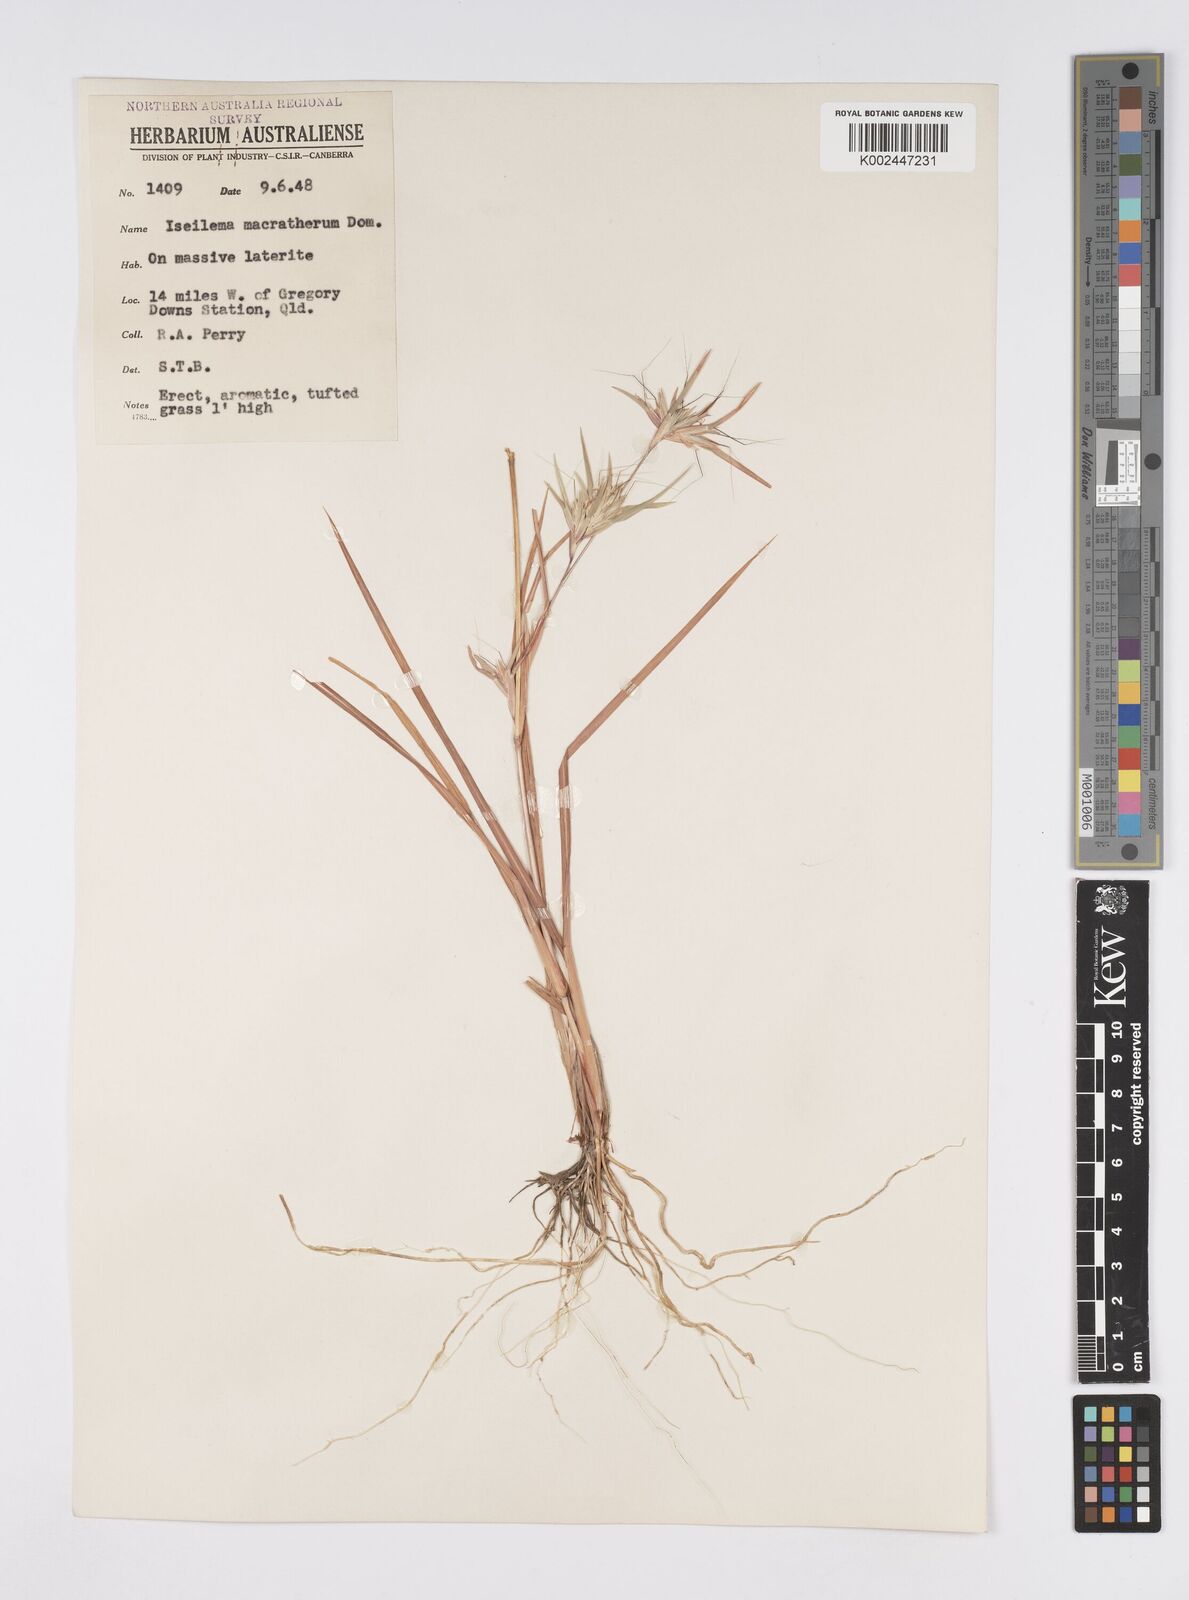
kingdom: Plantae
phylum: Tracheophyta
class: Liliopsida
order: Poales
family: Poaceae
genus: Iseilema
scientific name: Iseilema macratherum
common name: Bull flinders grass
